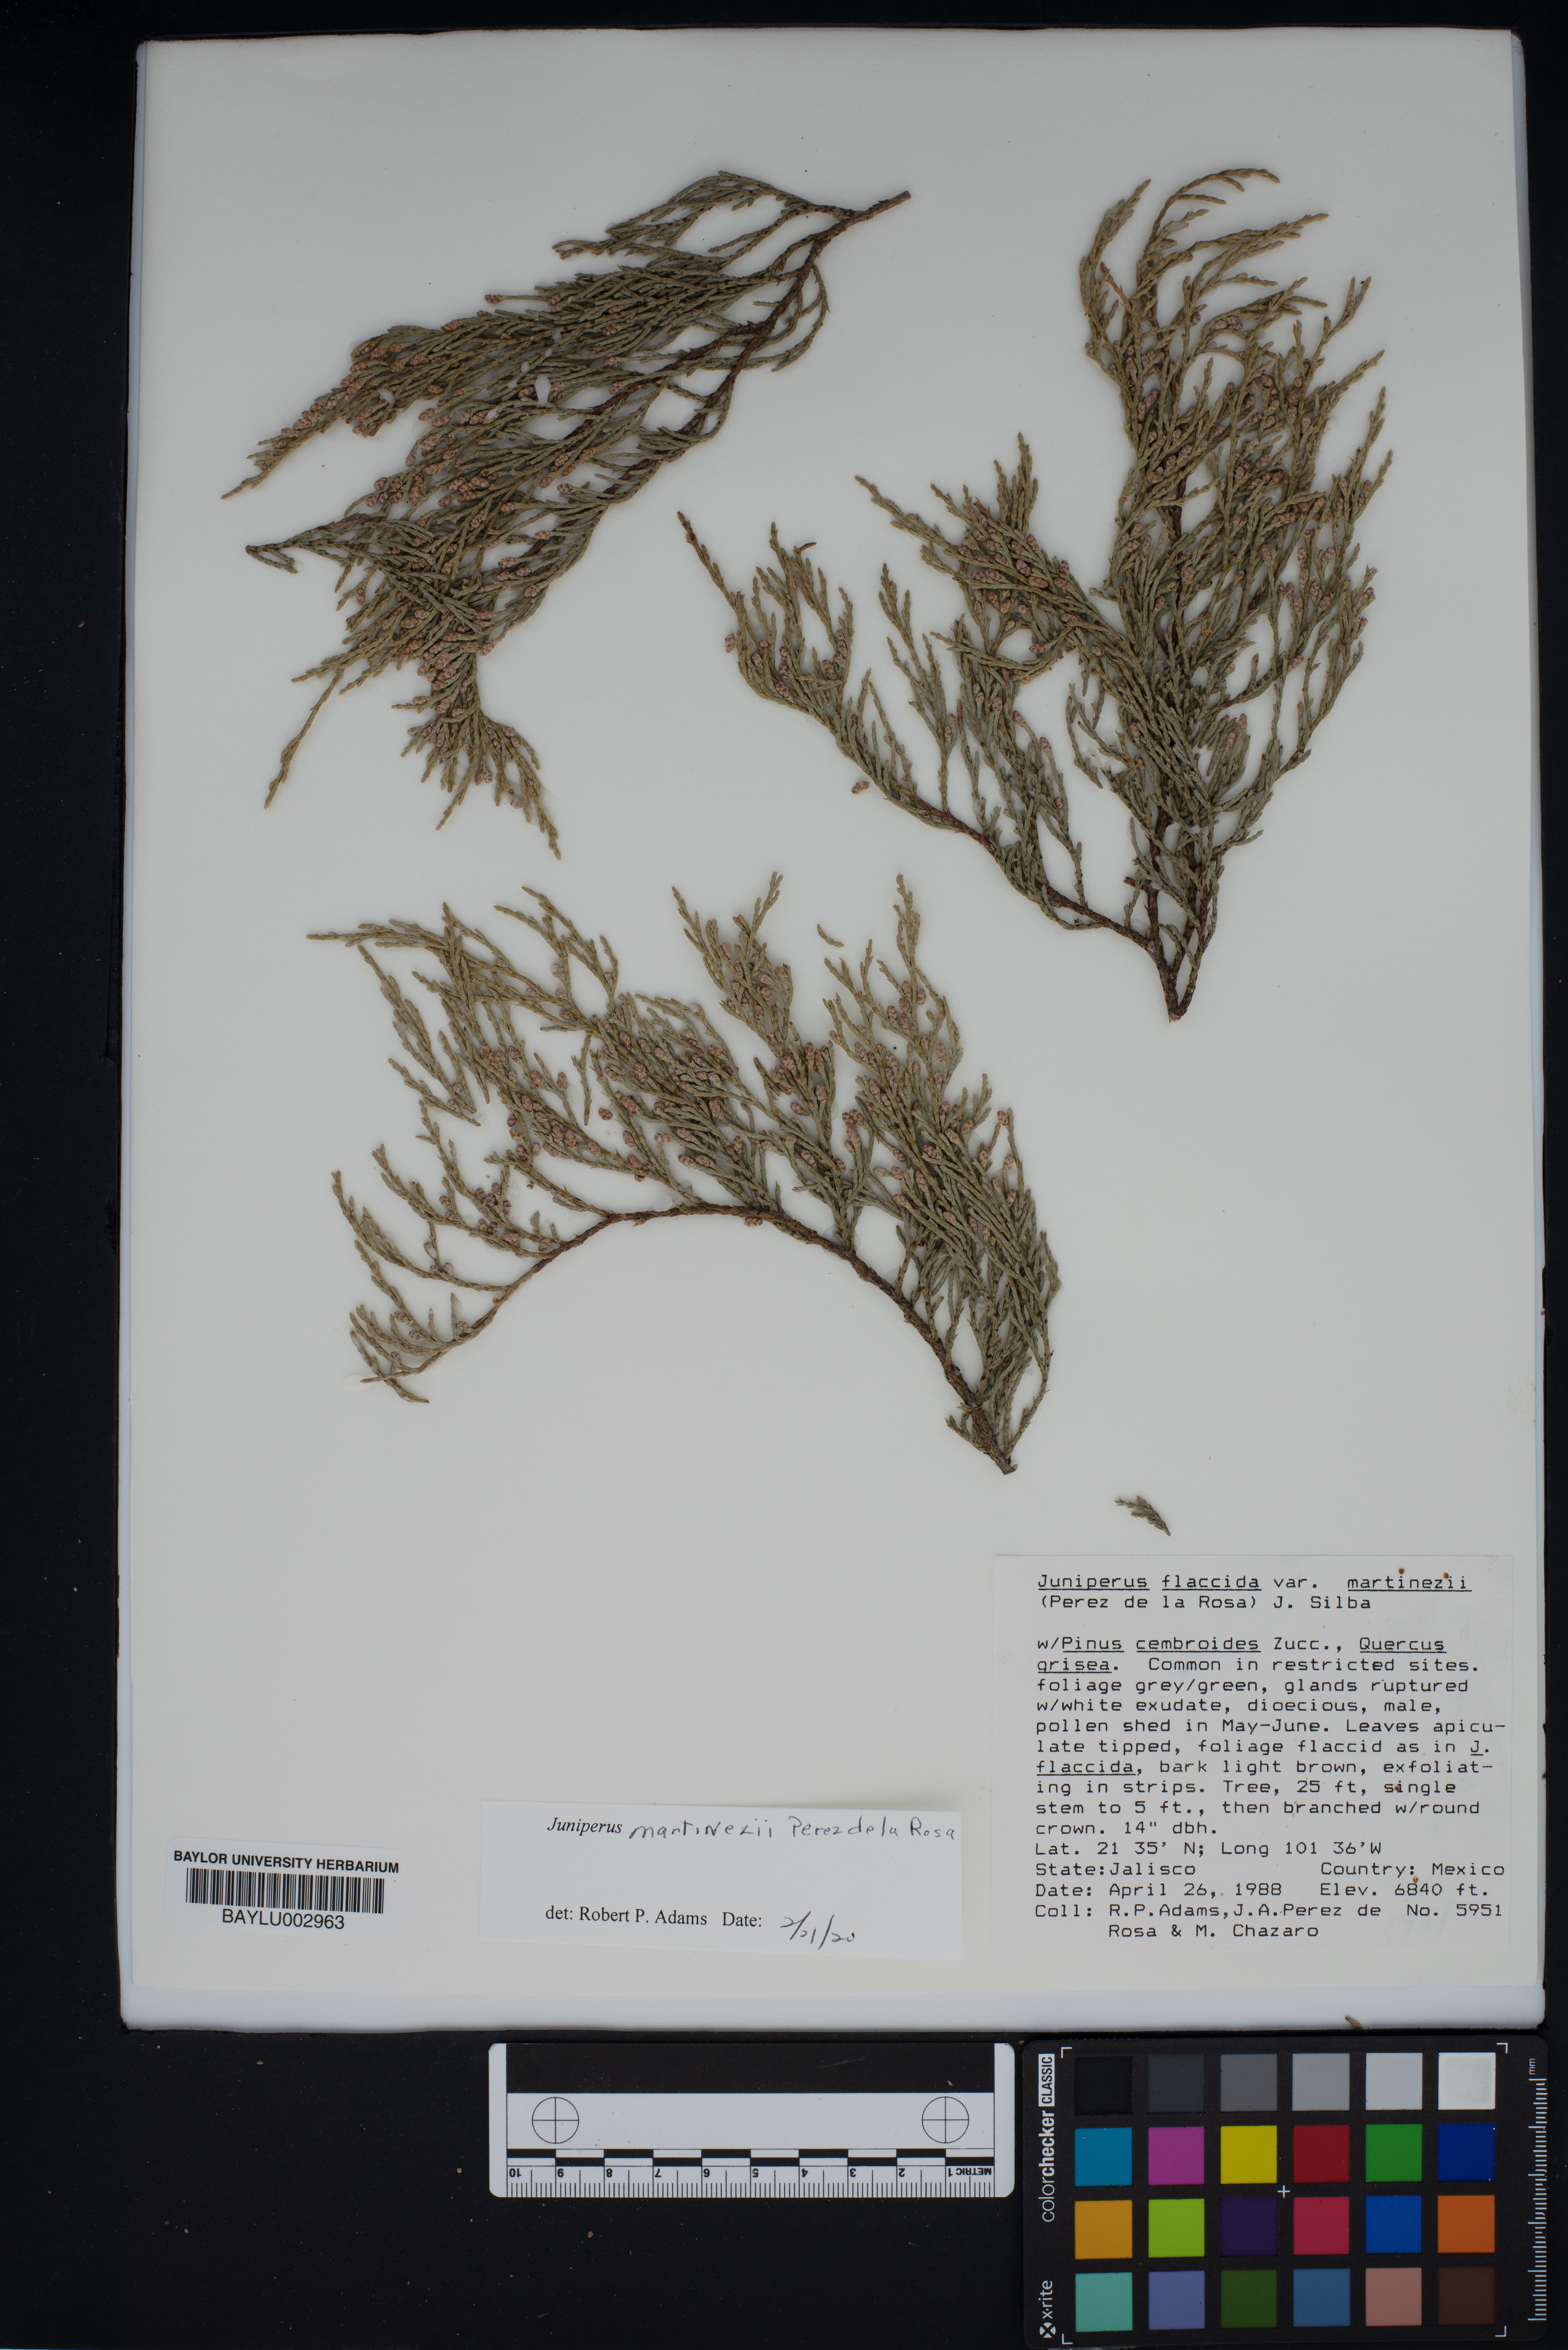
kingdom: Plantae
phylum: Tracheophyta
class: Pinopsida
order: Pinales
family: Cupressaceae
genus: Juniperus
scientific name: Juniperus flaccida
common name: Drooping juniper
